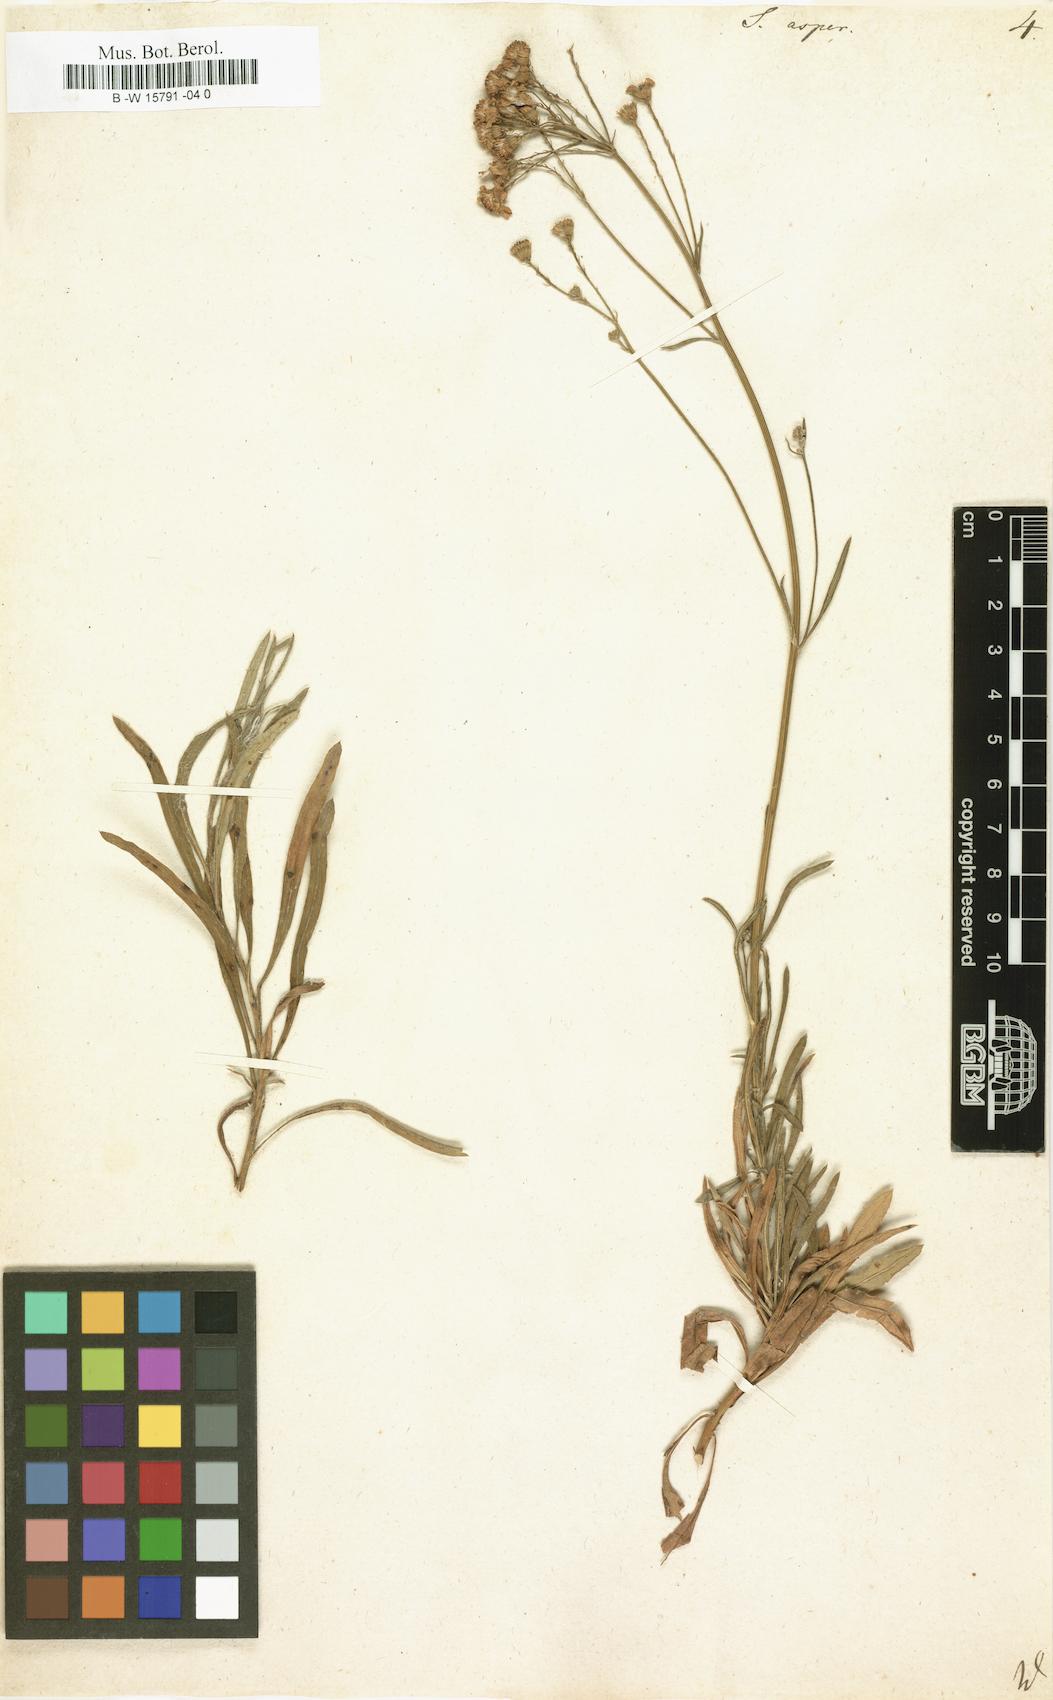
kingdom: Plantae
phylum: Tracheophyta
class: Magnoliopsida
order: Asterales
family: Asteraceae
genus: Senecio
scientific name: Senecio
